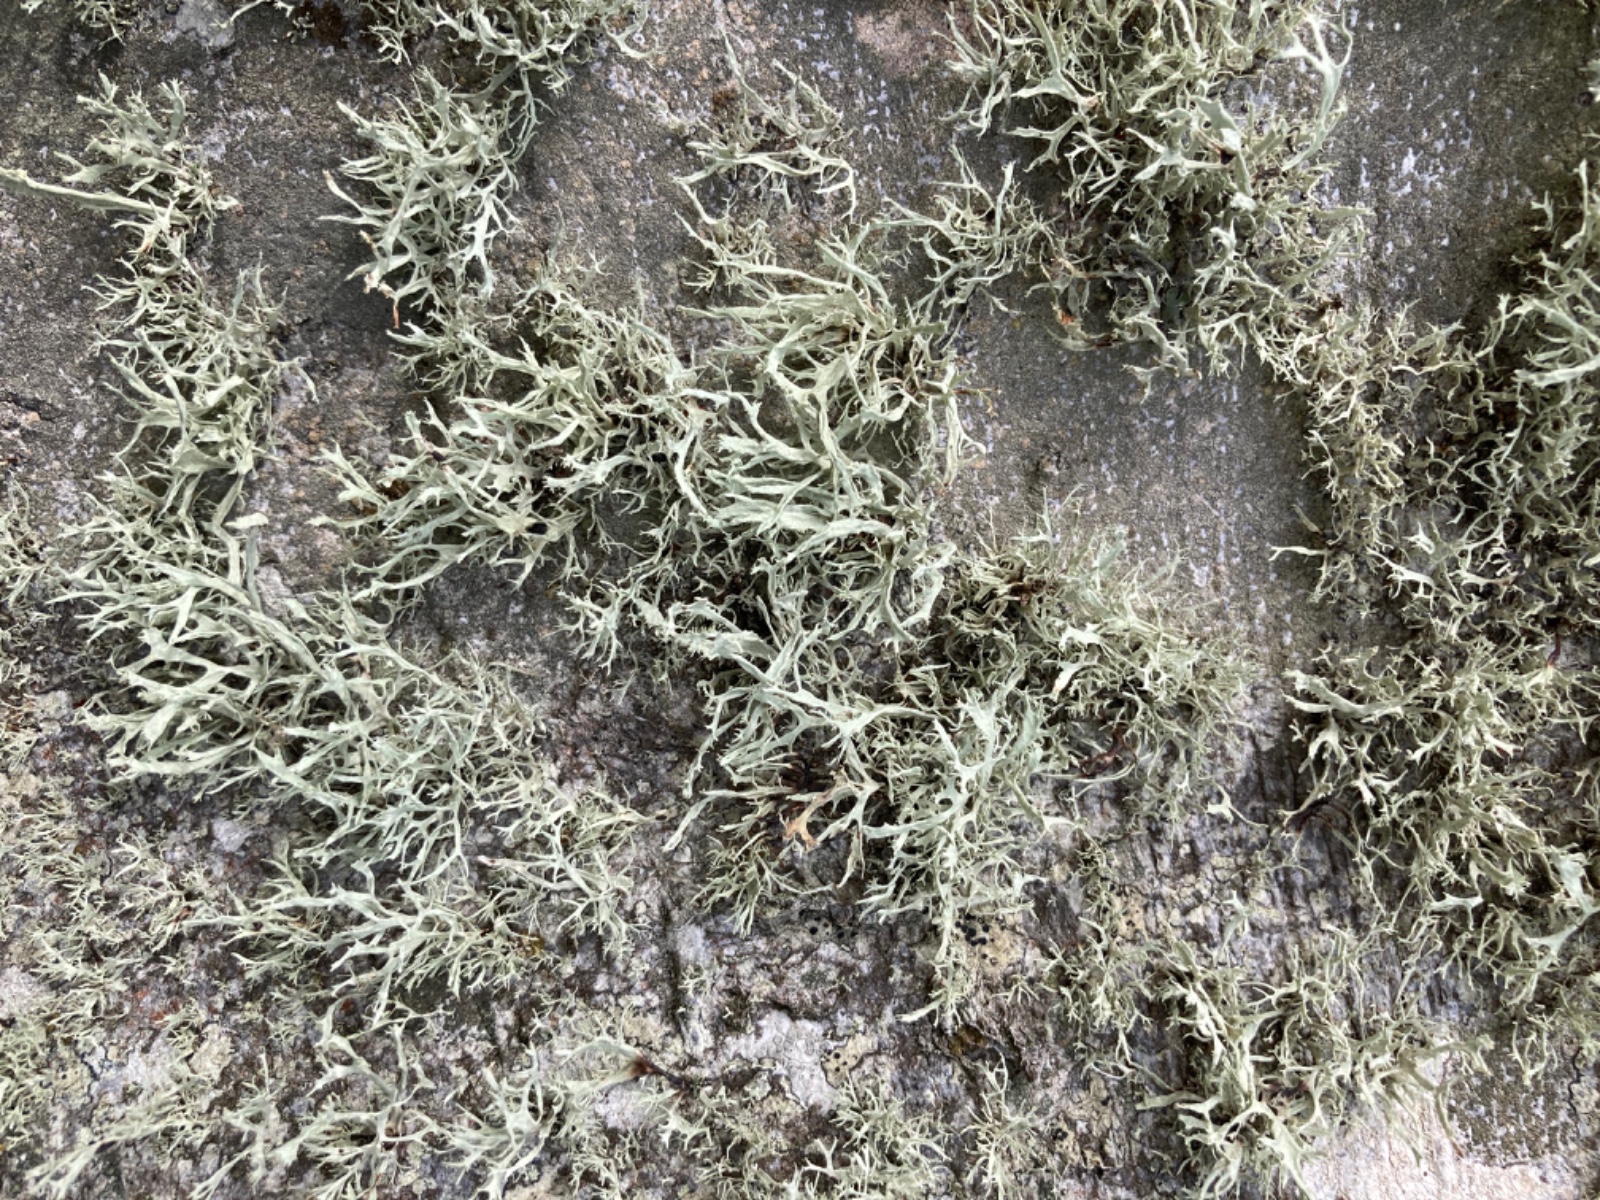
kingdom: Fungi
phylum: Ascomycota
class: Lecanoromycetes
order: Lecanorales
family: Ramalinaceae
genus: Ramalina
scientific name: Ramalina farinacea
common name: melet grenlav
